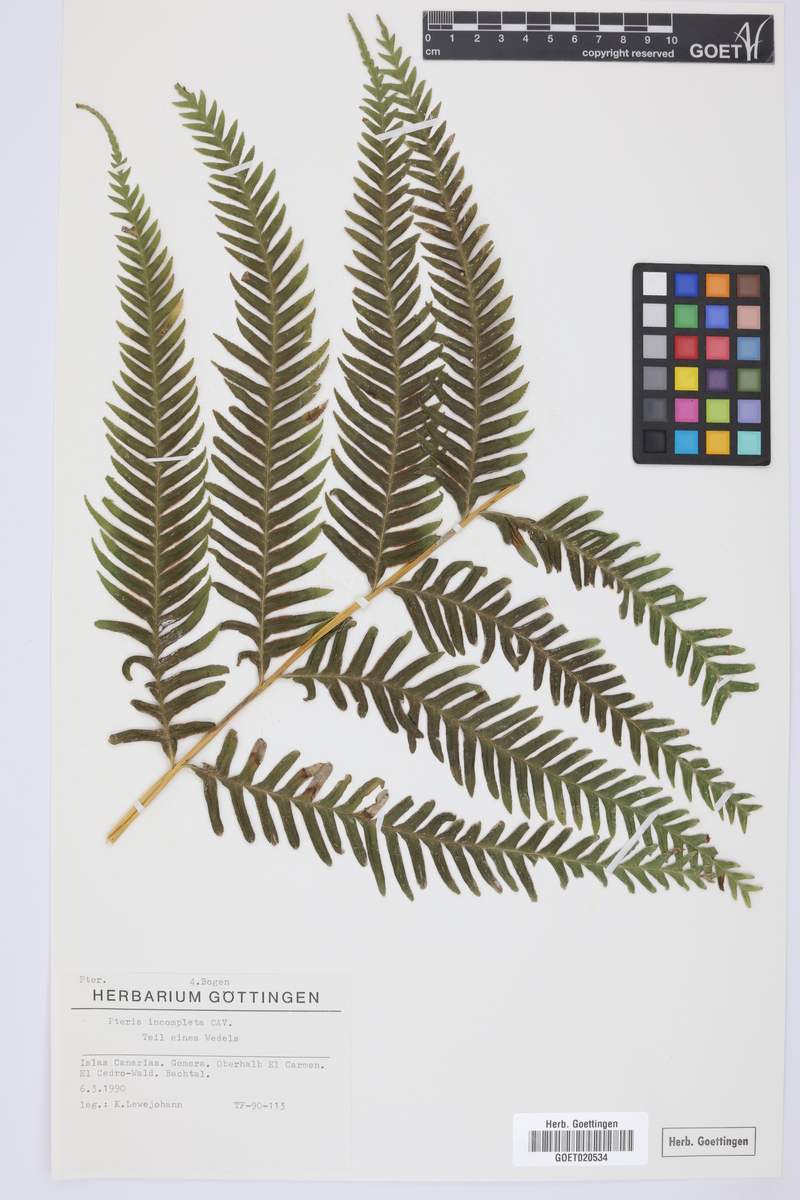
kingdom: Plantae
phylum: Tracheophyta
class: Polypodiopsida
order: Polypodiales
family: Pteridaceae
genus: Pteris
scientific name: Pteris incompleta
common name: Laurisilva brake
